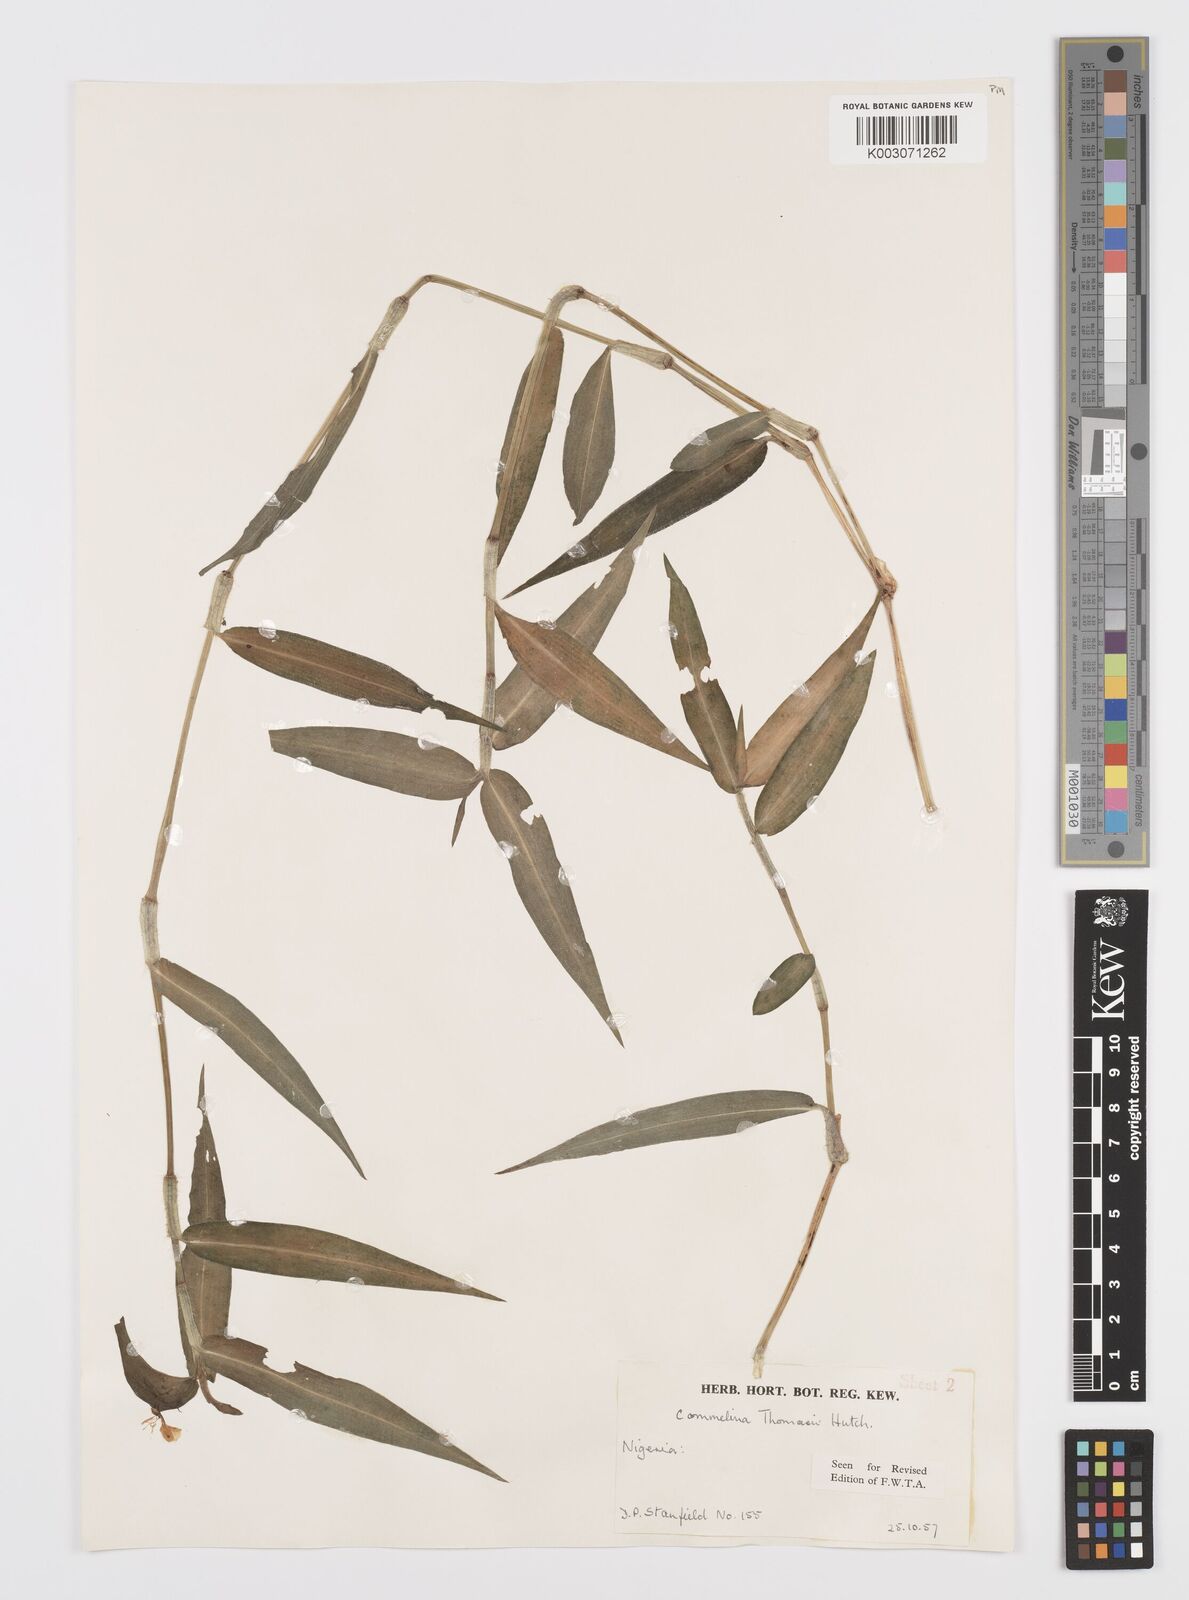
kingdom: Plantae
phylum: Tracheophyta
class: Liliopsida
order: Commelinales
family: Commelinaceae
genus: Commelina
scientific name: Commelina acutispatha
